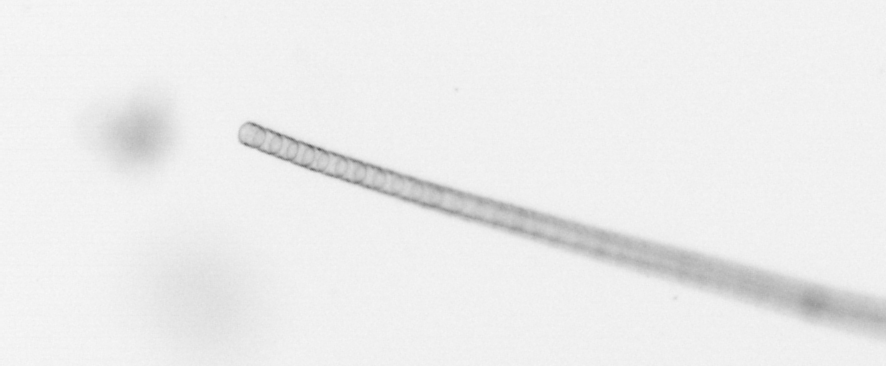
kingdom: Chromista
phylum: Ochrophyta
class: Bacillariophyceae
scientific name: Bacillariophyceae
